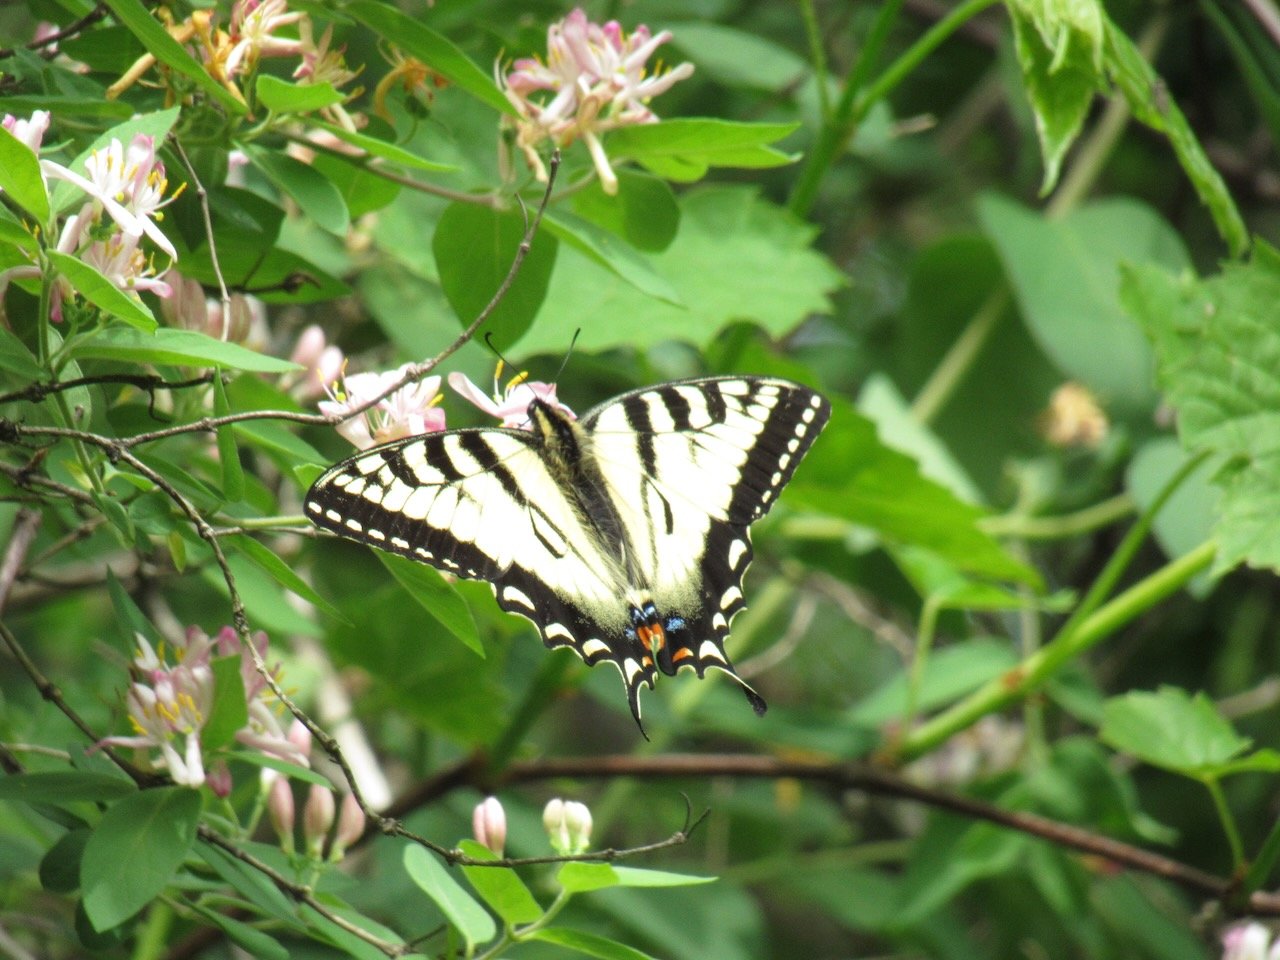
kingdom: Animalia
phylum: Arthropoda
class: Insecta
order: Lepidoptera
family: Papilionidae
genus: Pterourus
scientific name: Pterourus canadensis
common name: Canadian Tiger Swallowtail
